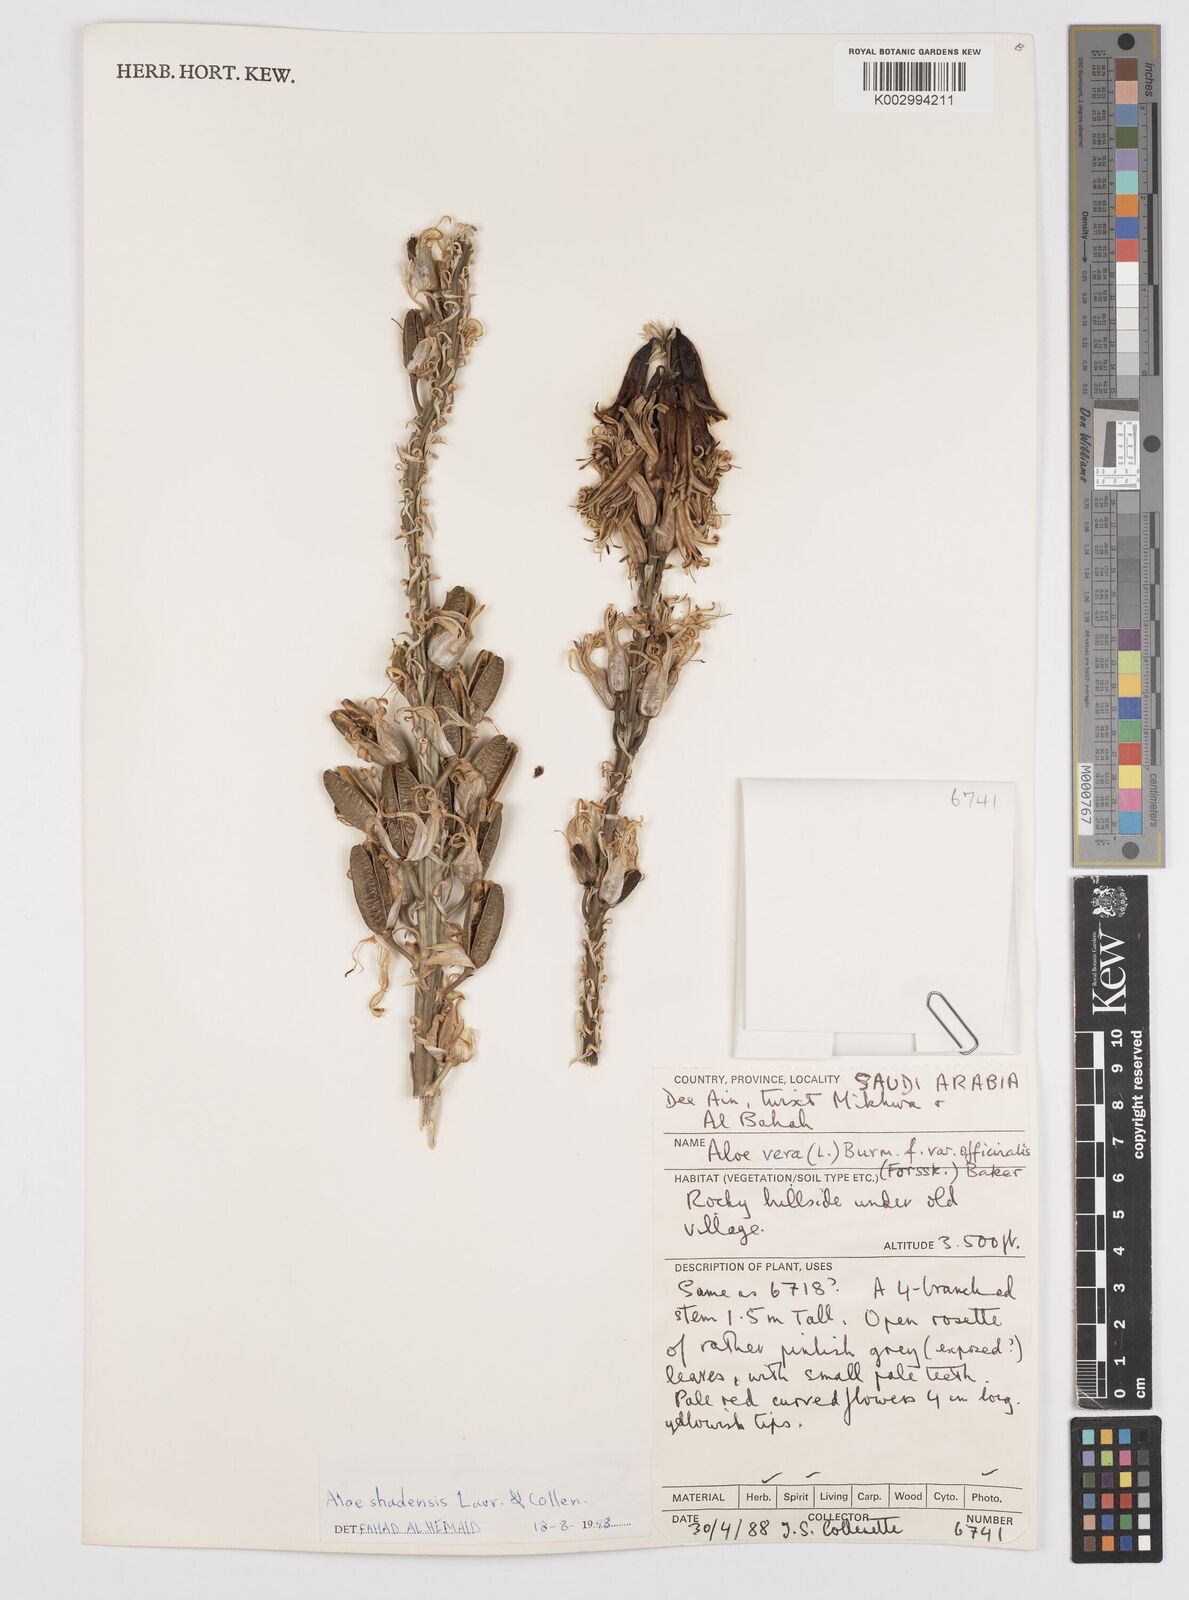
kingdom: Plantae
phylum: Tracheophyta
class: Liliopsida
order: Asparagales
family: Asphodelaceae
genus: Aloe
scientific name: Aloe shadensis
